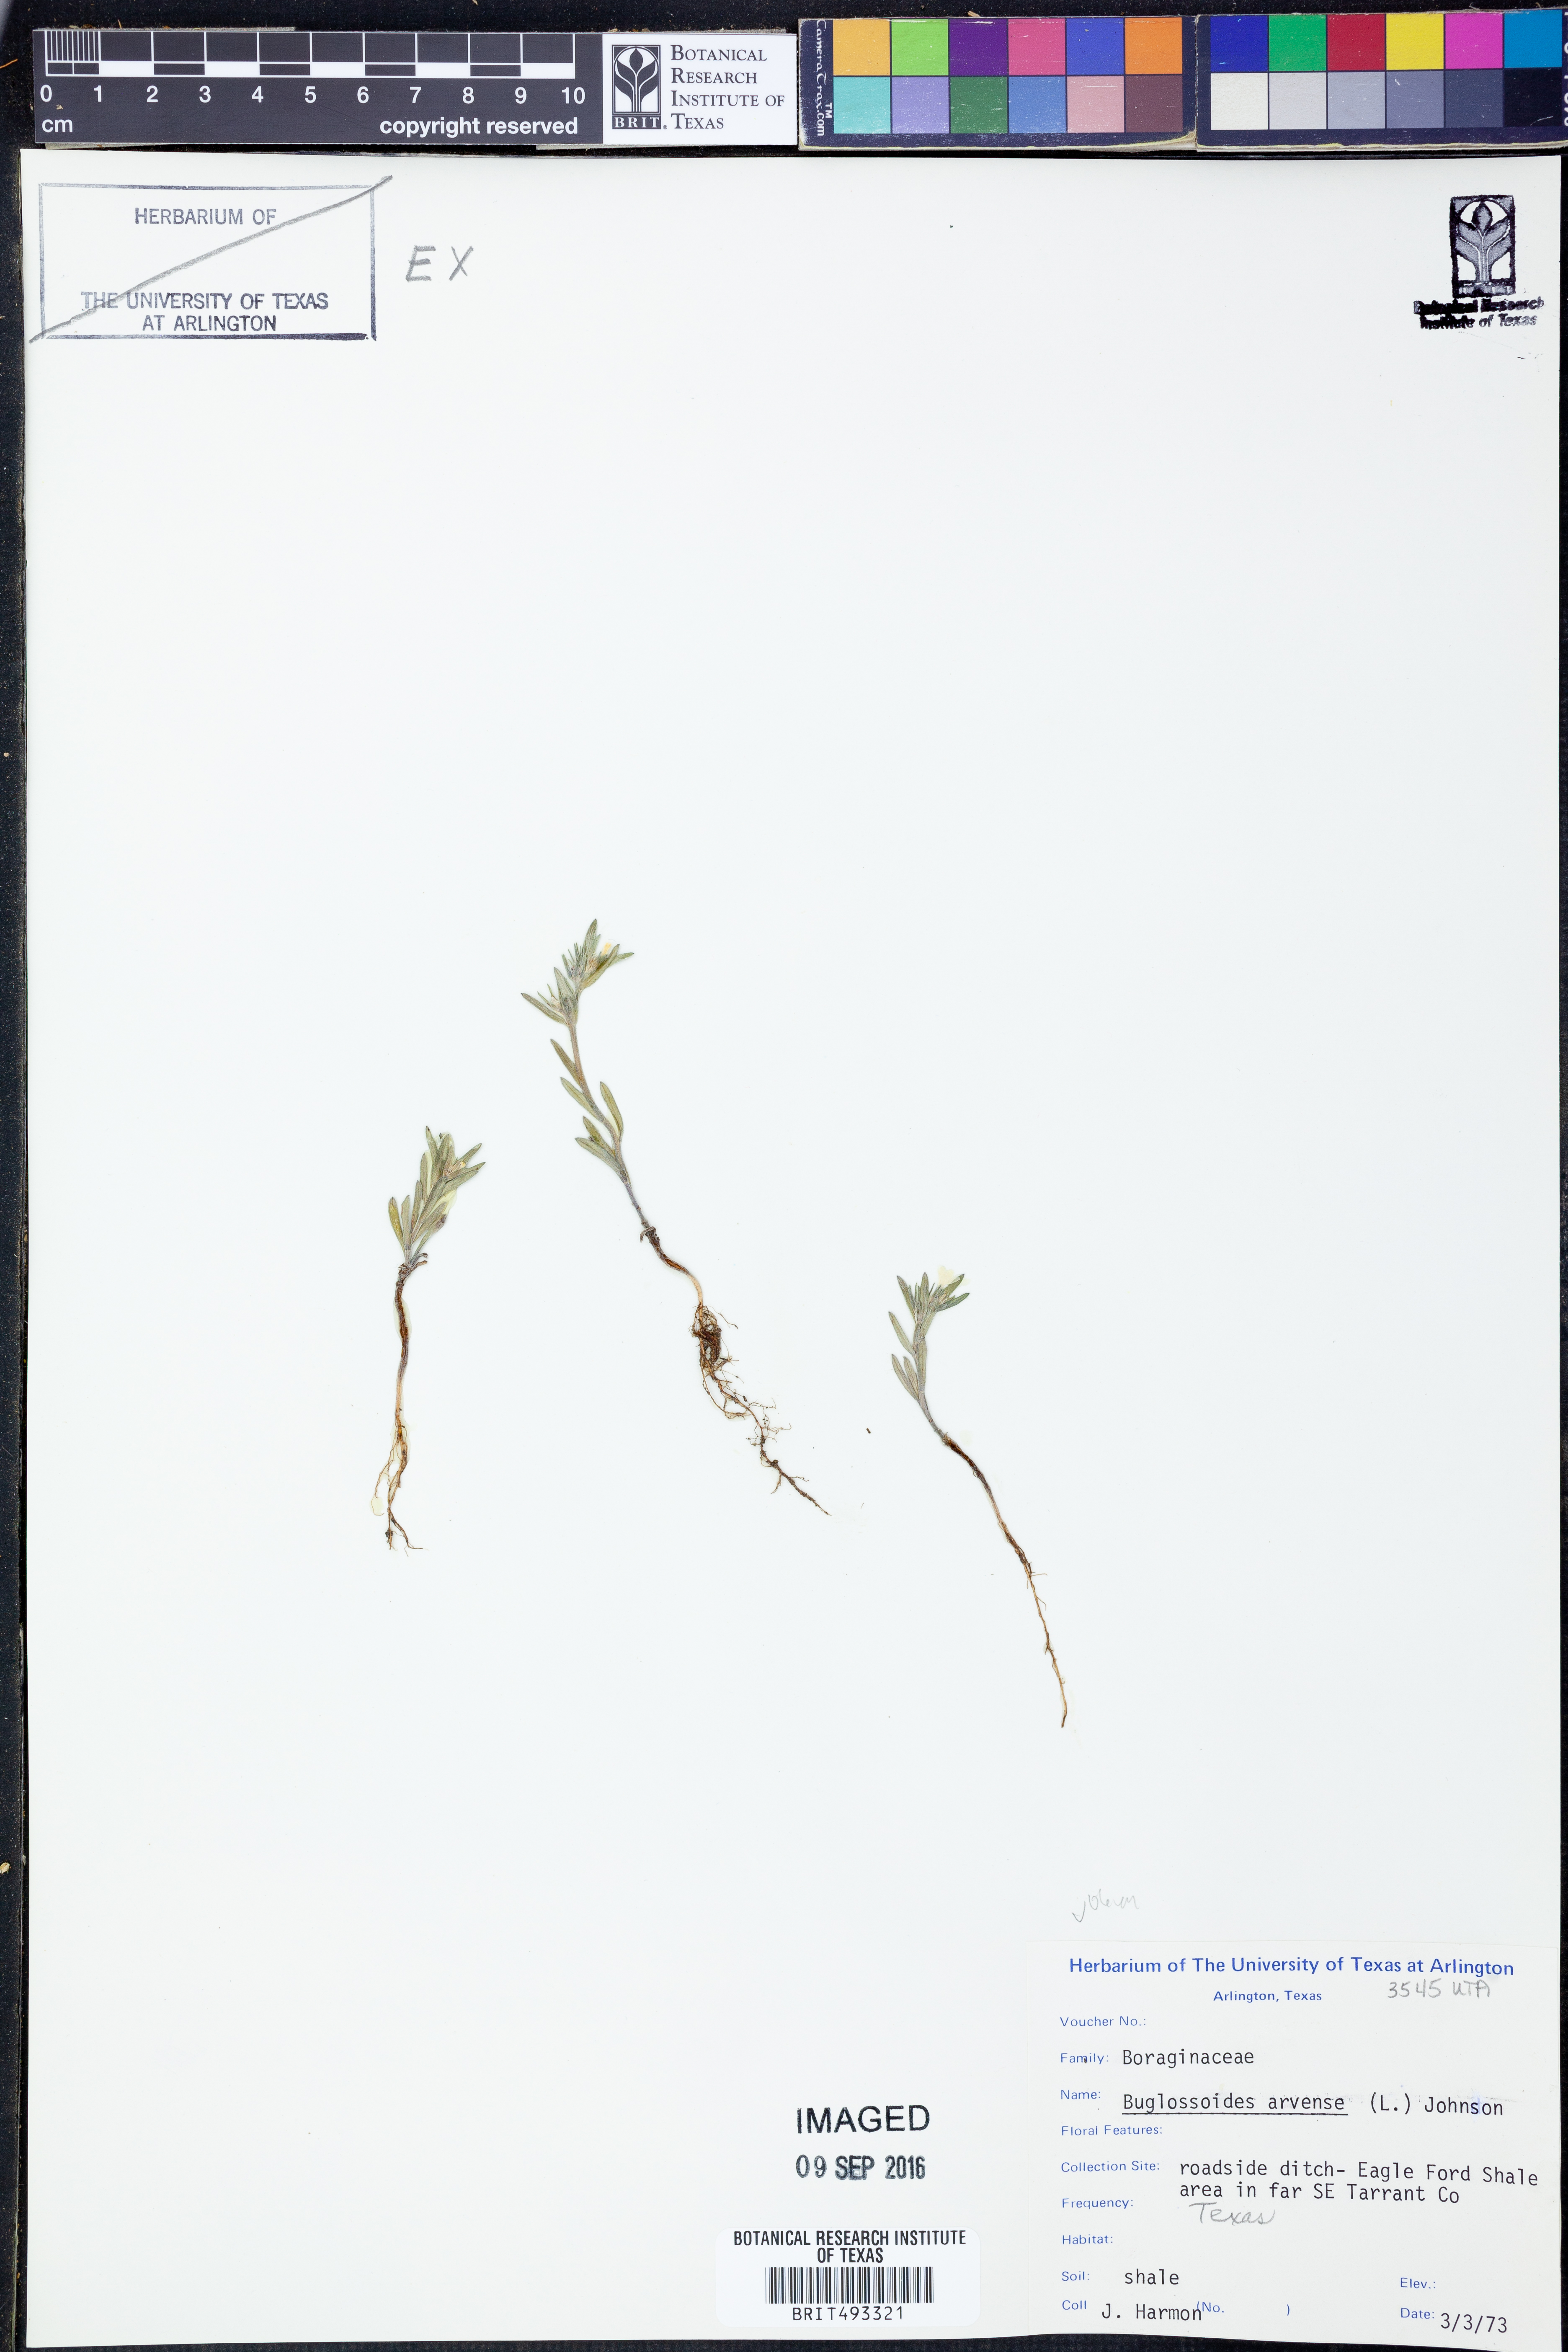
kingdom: Plantae
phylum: Tracheophyta
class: Magnoliopsida
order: Boraginales
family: Boraginaceae
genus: Buglossoides
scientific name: Buglossoides arvensis
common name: Corn gromwell
